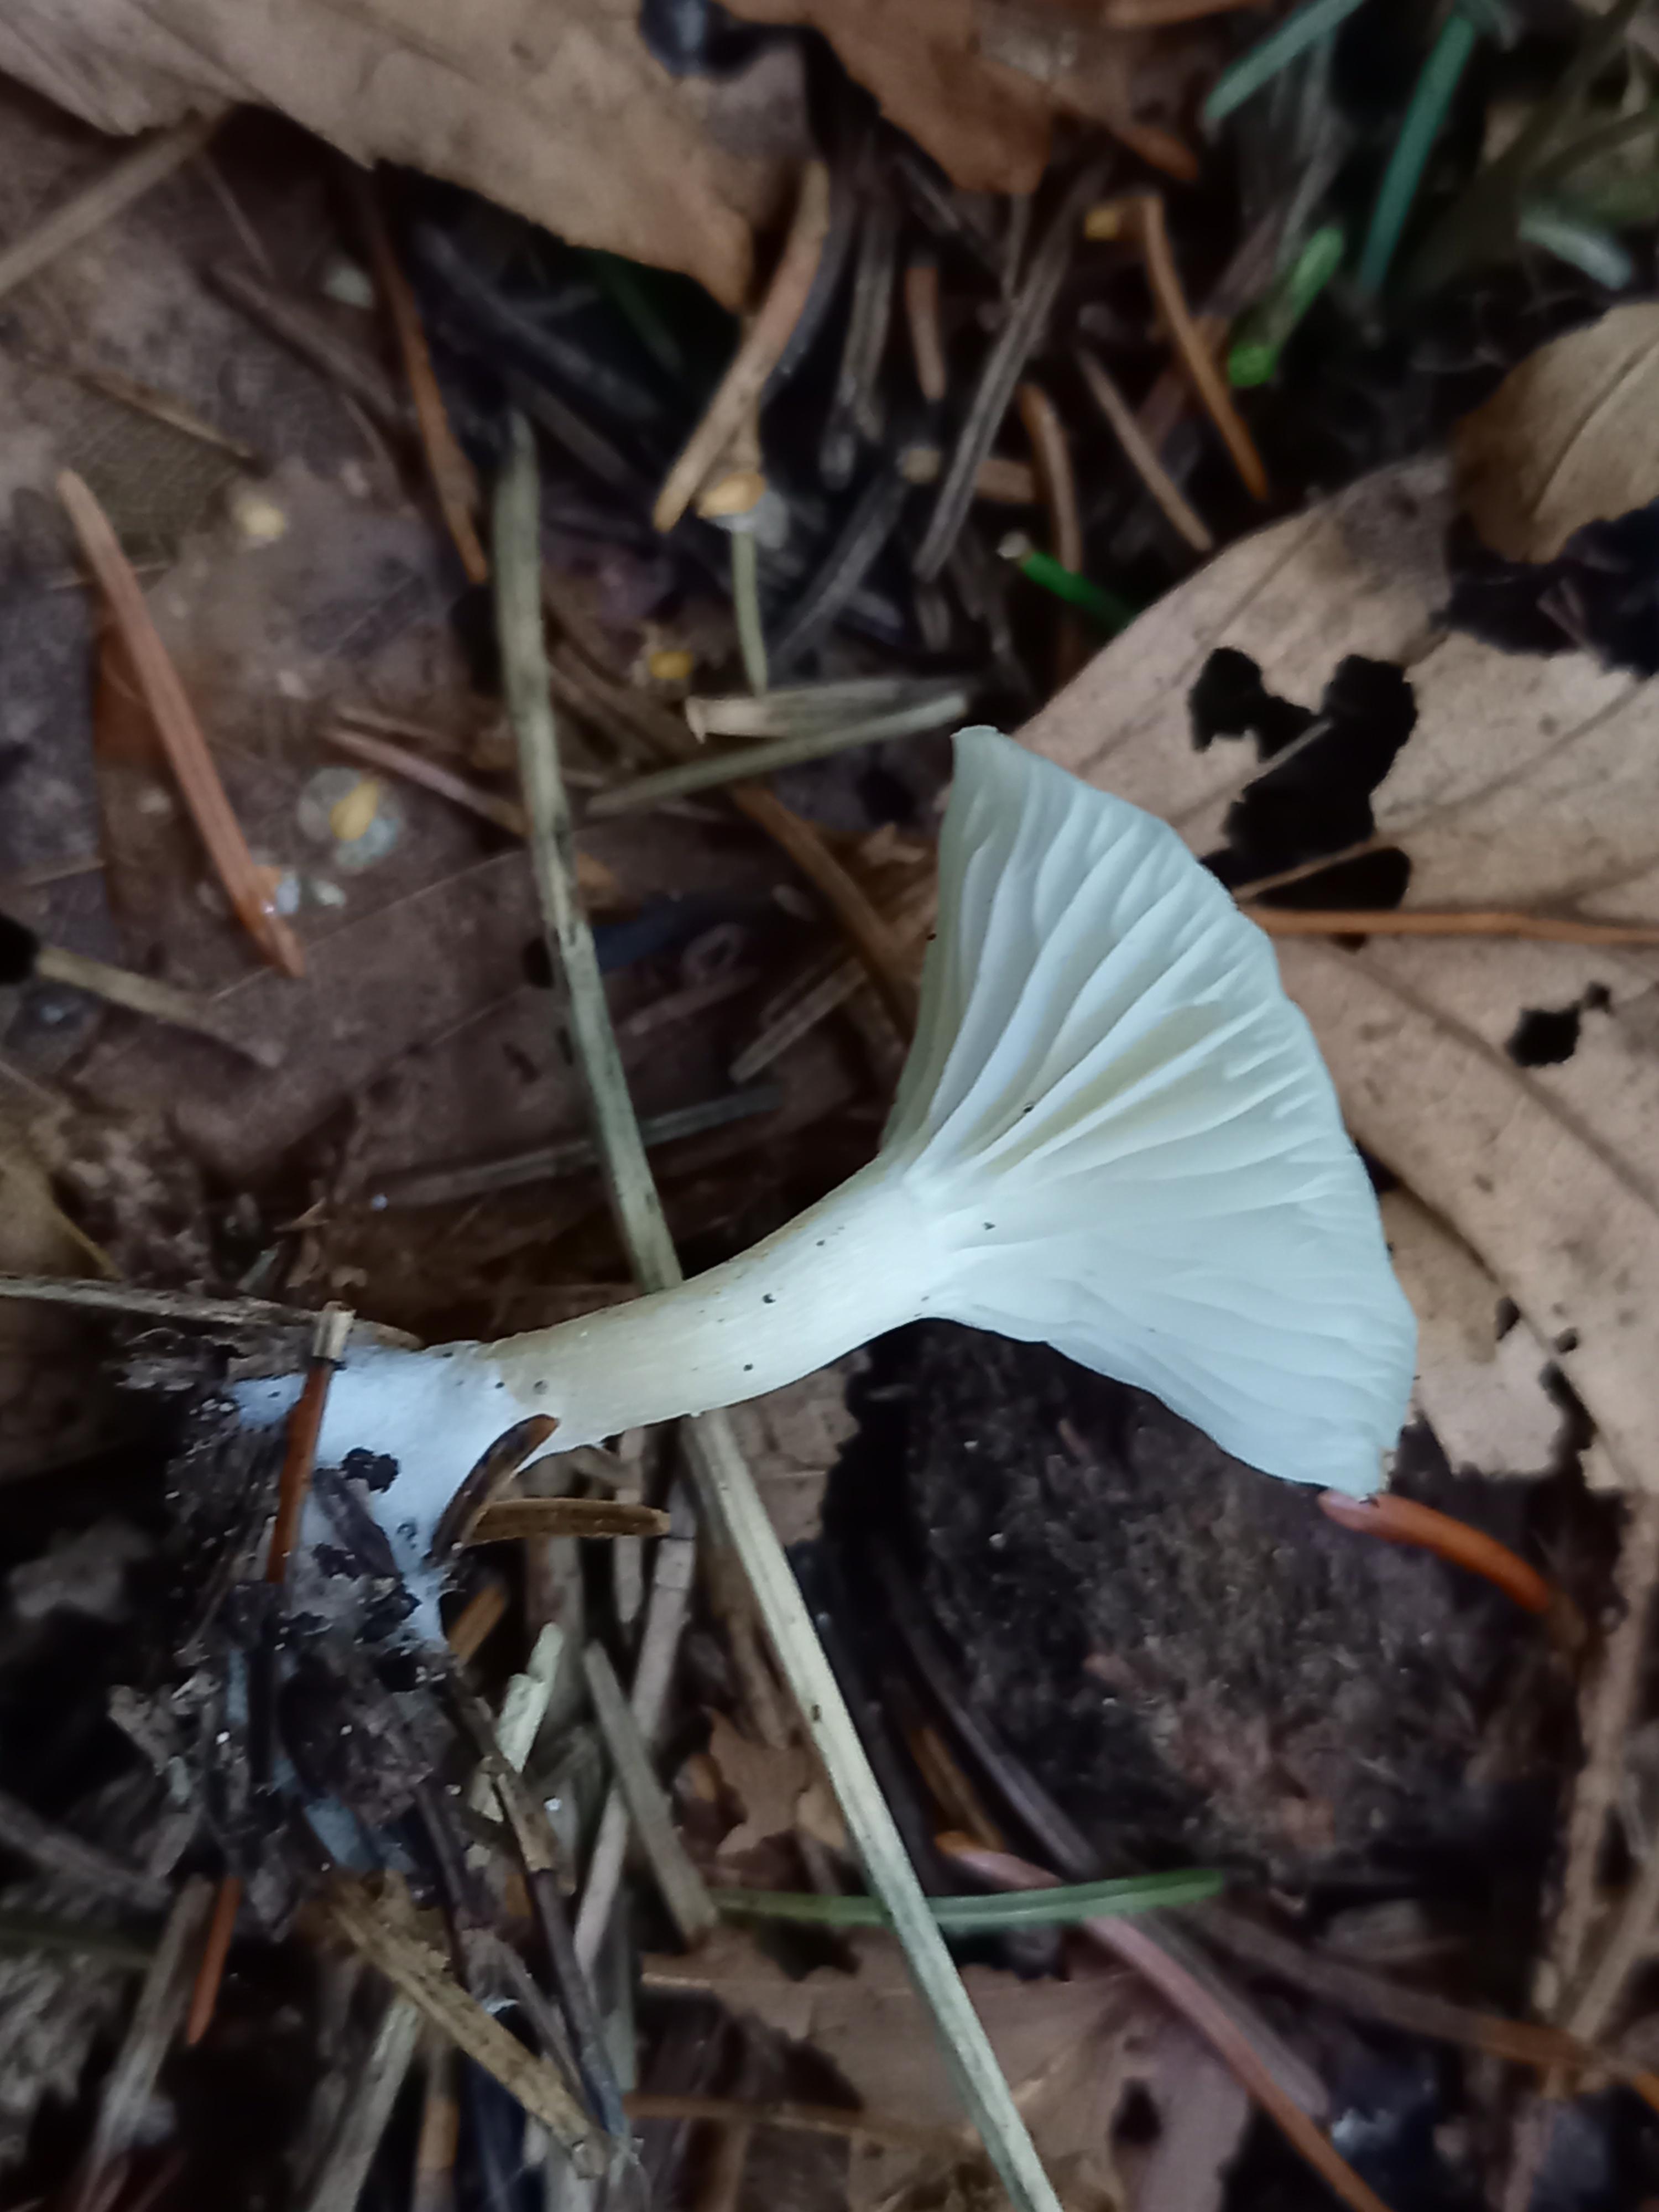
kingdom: Fungi
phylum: Basidiomycota
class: Agaricomycetes
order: Agaricales
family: Tricholomataceae
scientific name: Tricholomataceae
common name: ridderhatfamilien
